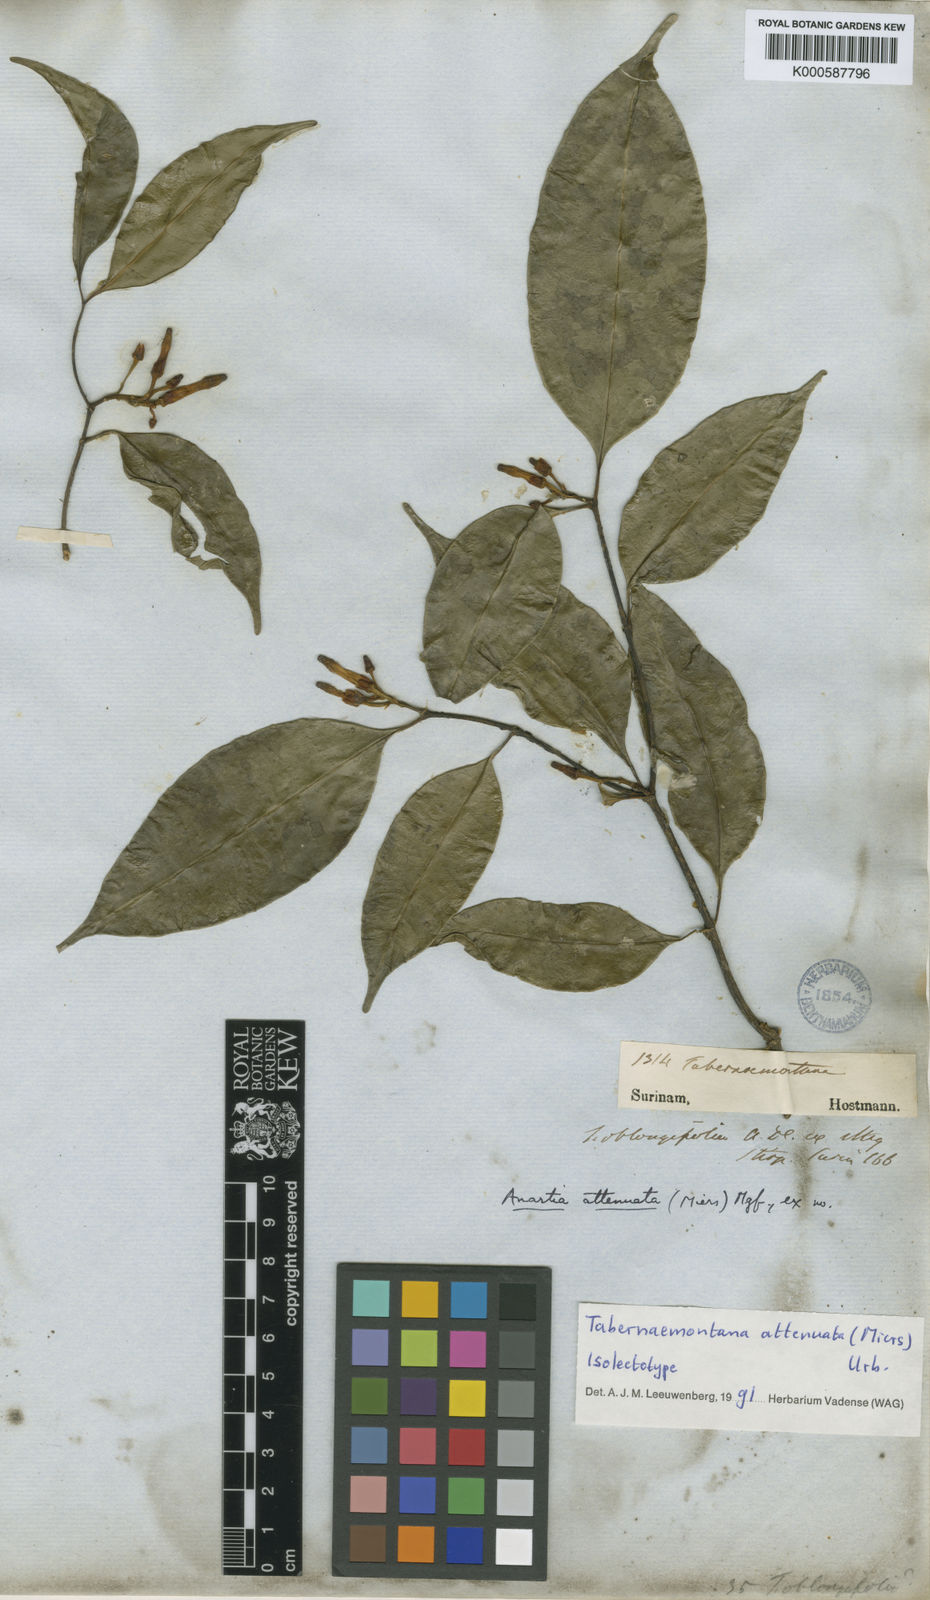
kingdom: Plantae
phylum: Tracheophyta
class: Magnoliopsida
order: Gentianales
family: Apocynaceae
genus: Tabernaemontana
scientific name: Tabernaemontana attenuata
